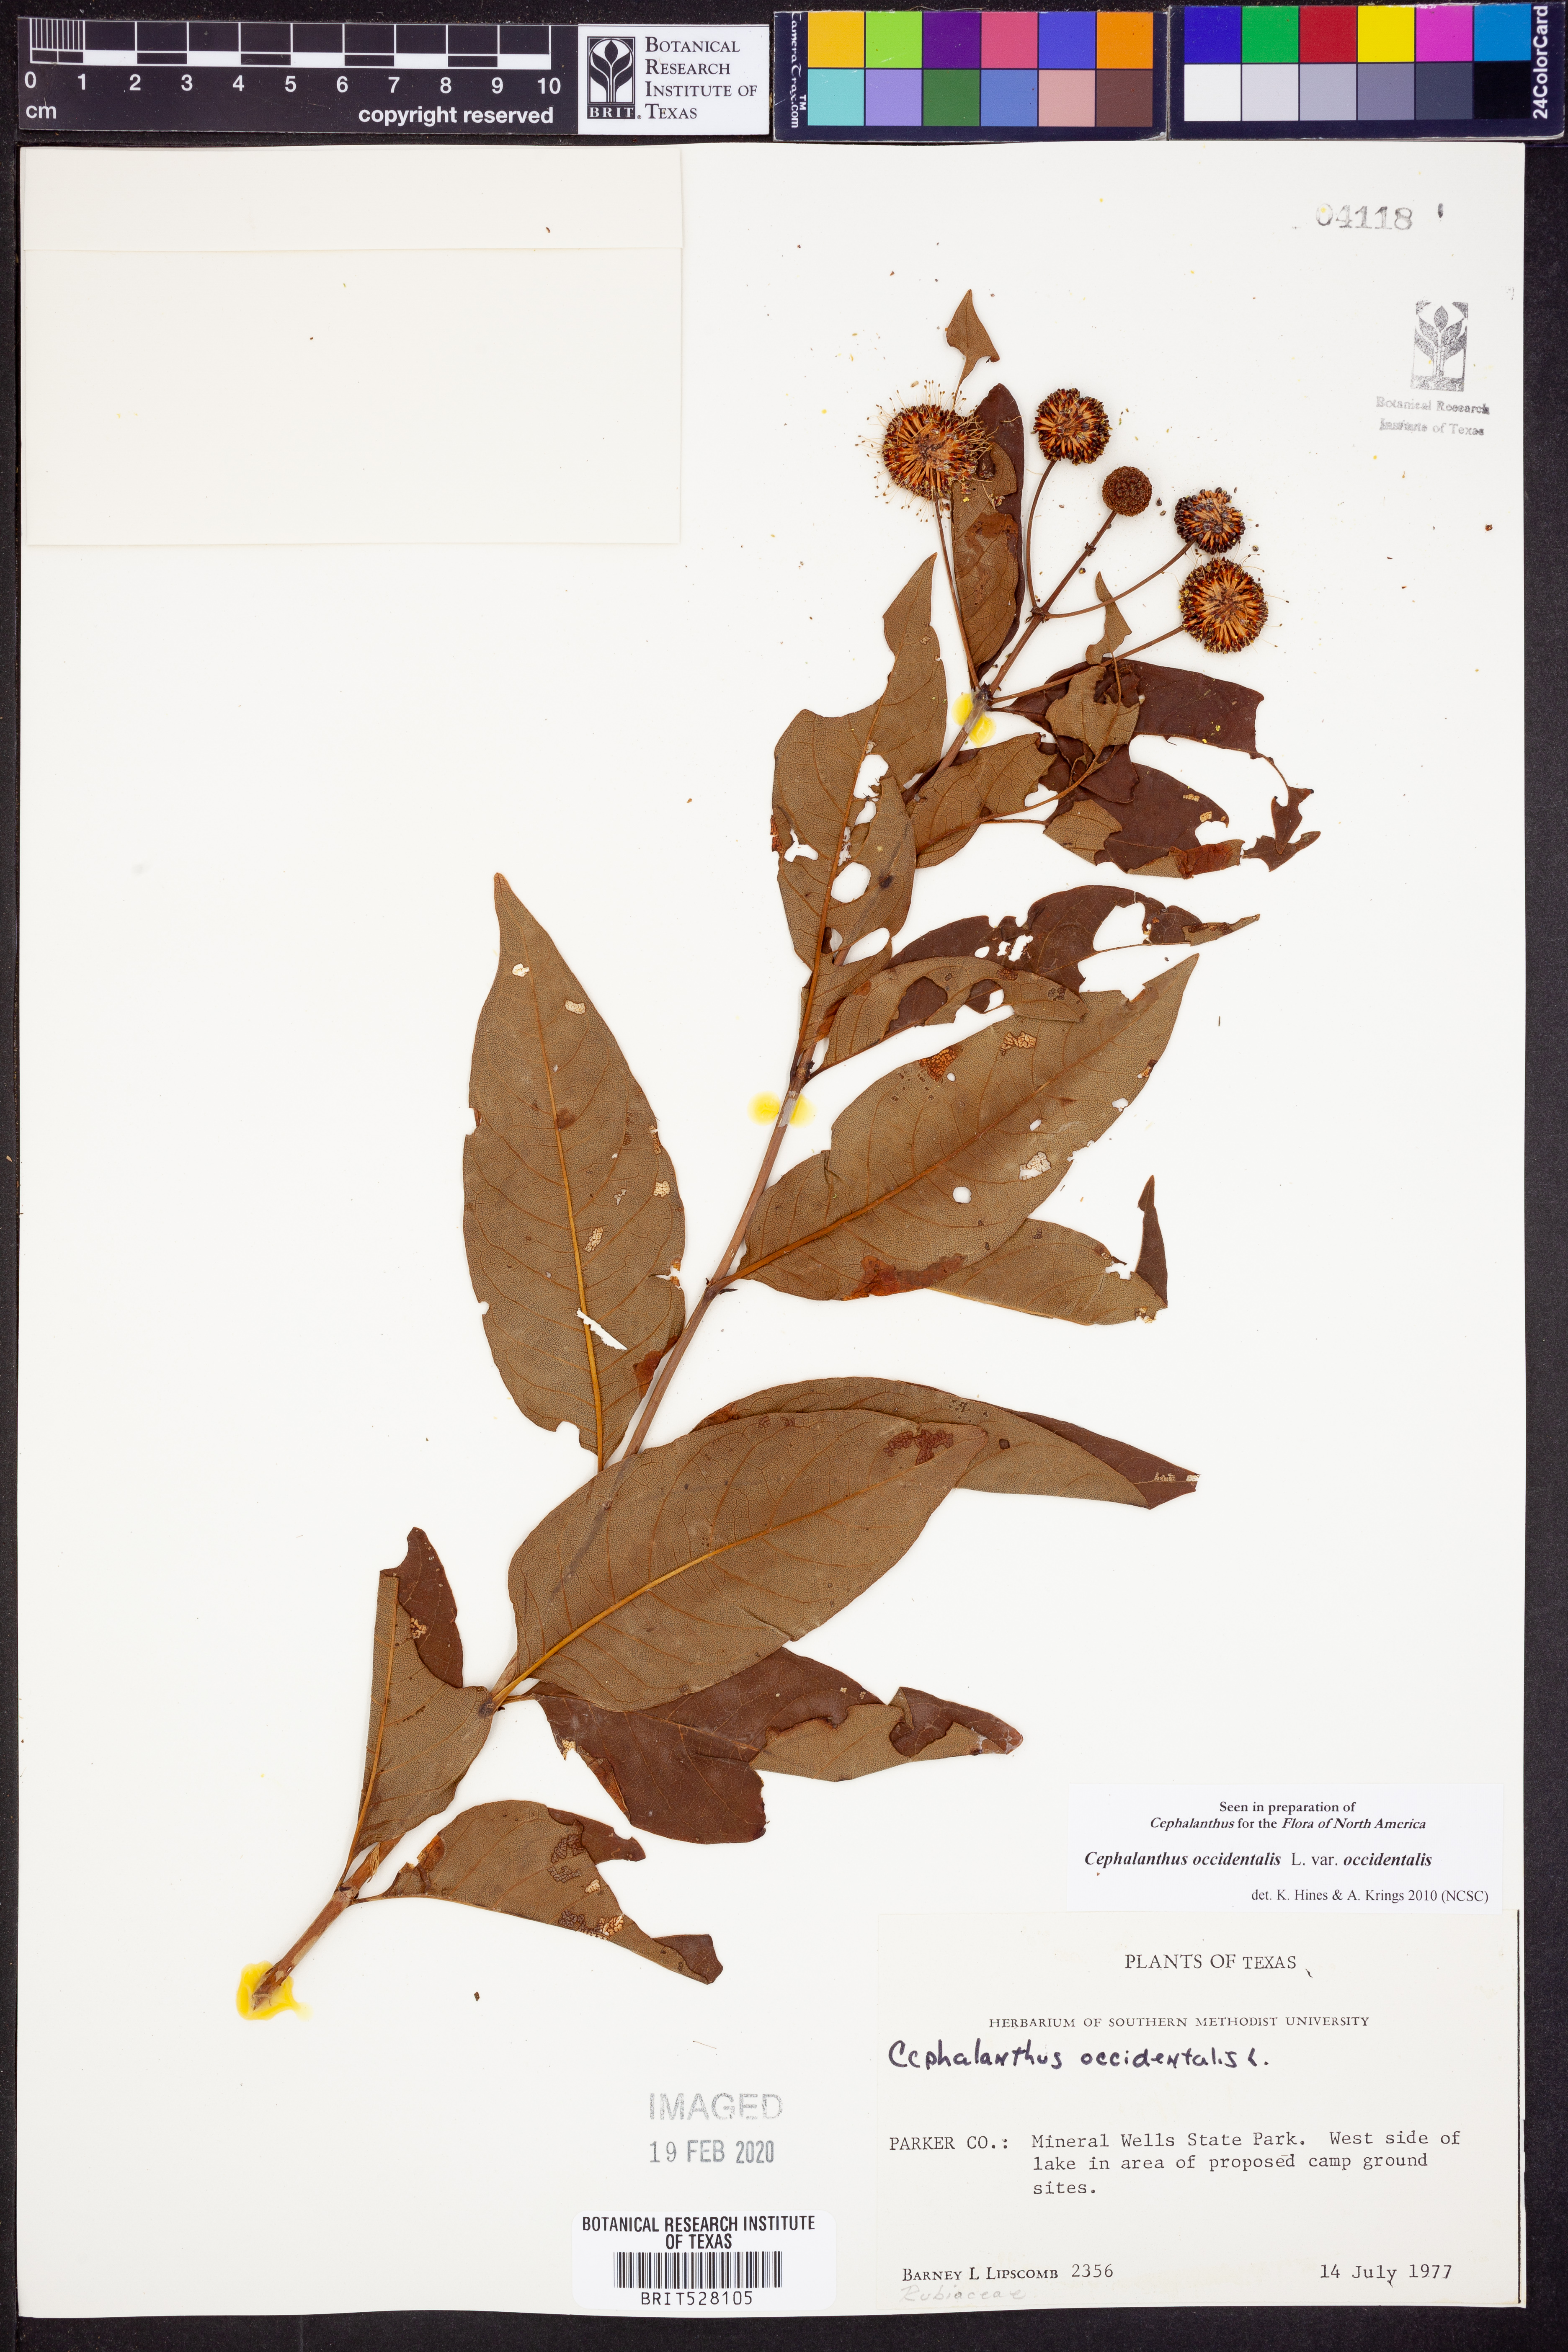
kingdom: Plantae
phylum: Tracheophyta
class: Magnoliopsida
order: Gentianales
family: Rubiaceae
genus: Cephalanthus
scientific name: Cephalanthus occidentalis
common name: Button-willow
